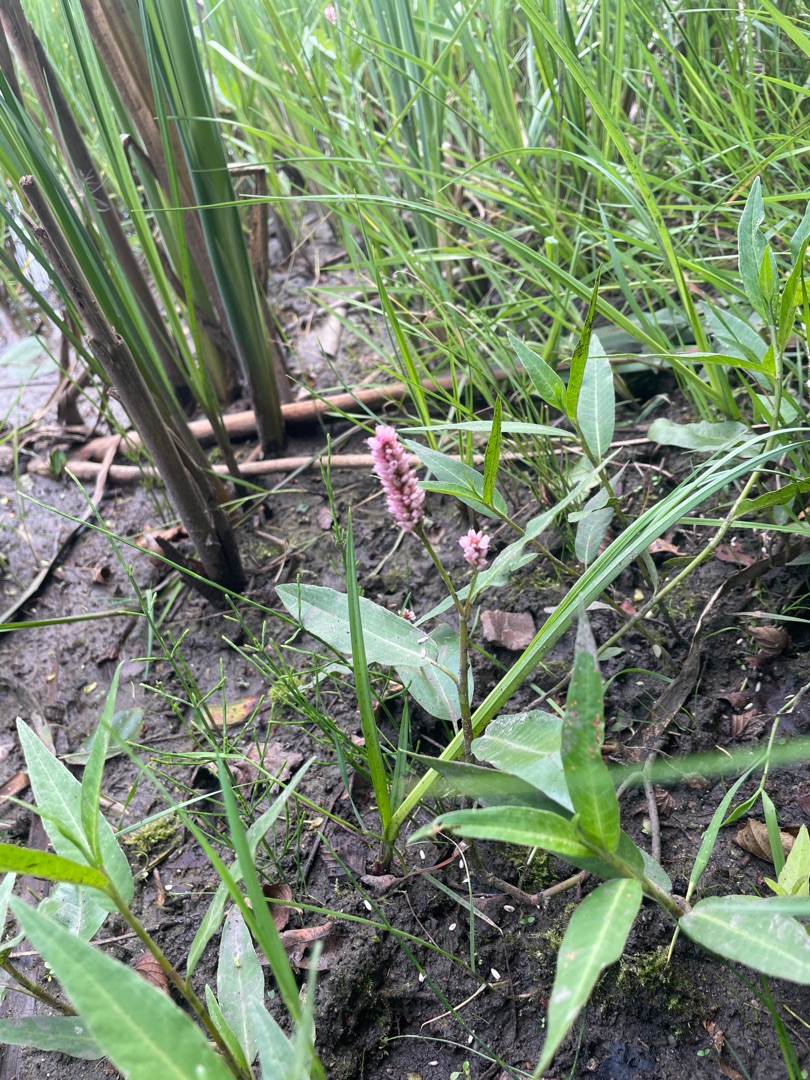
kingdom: Plantae
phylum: Tracheophyta
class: Magnoliopsida
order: Caryophyllales
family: Polygonaceae
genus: Persicaria
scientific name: Persicaria amphibia
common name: Vand-pileurt
